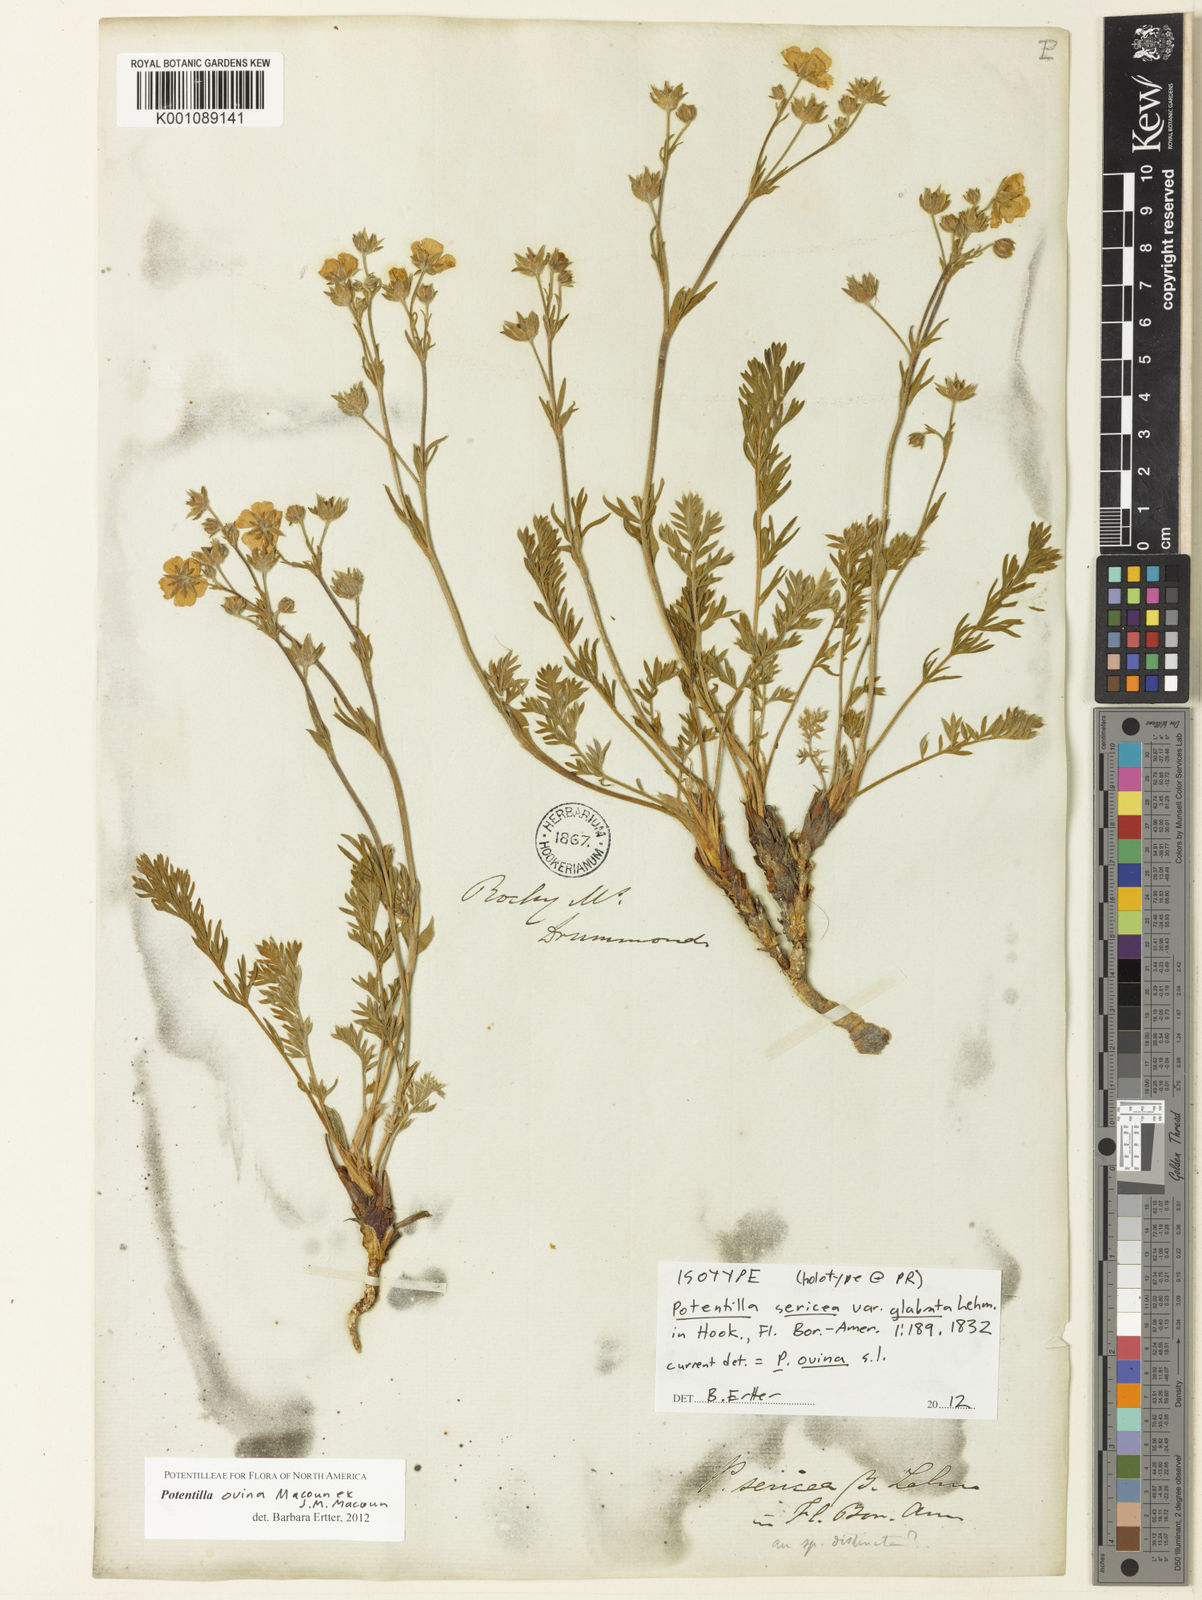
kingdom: Plantae
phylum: Tracheophyta
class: Magnoliopsida
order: Rosales
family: Rosaceae
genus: Potentilla
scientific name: Potentilla ovina
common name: Sheep cinquefoil
